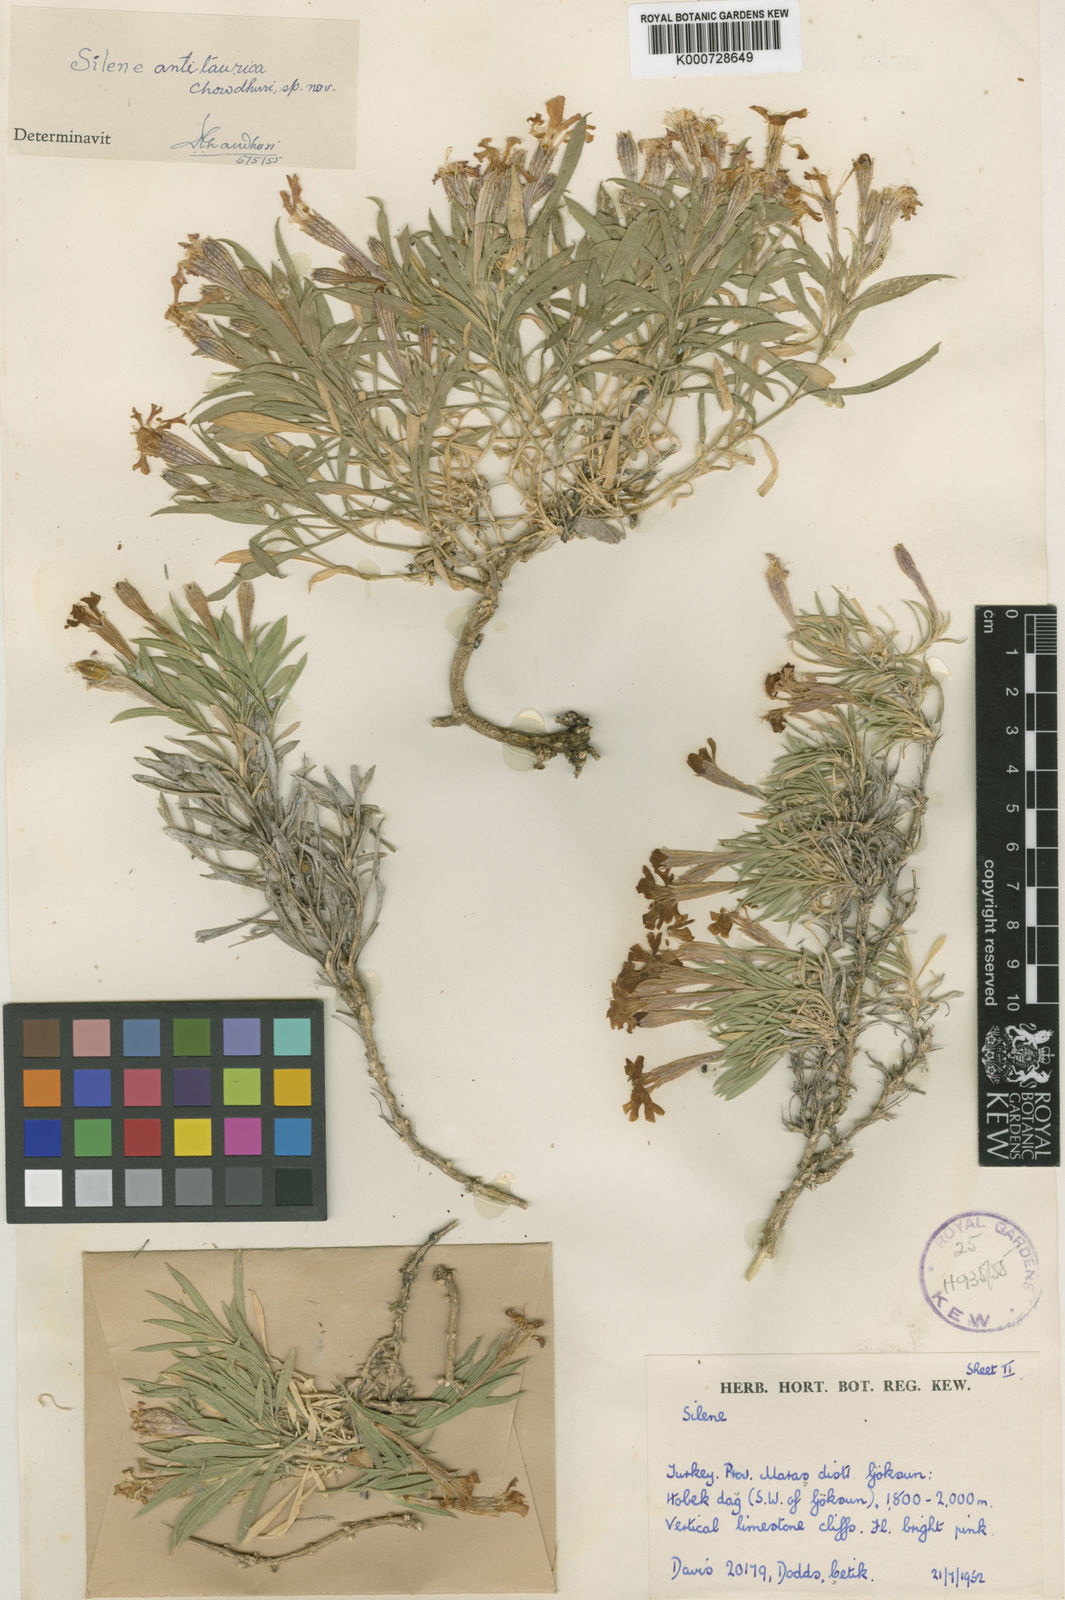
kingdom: Plantae
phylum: Tracheophyta
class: Magnoliopsida
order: Caryophyllales
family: Caryophyllaceae
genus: Silene
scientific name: Silene brevicaulis
